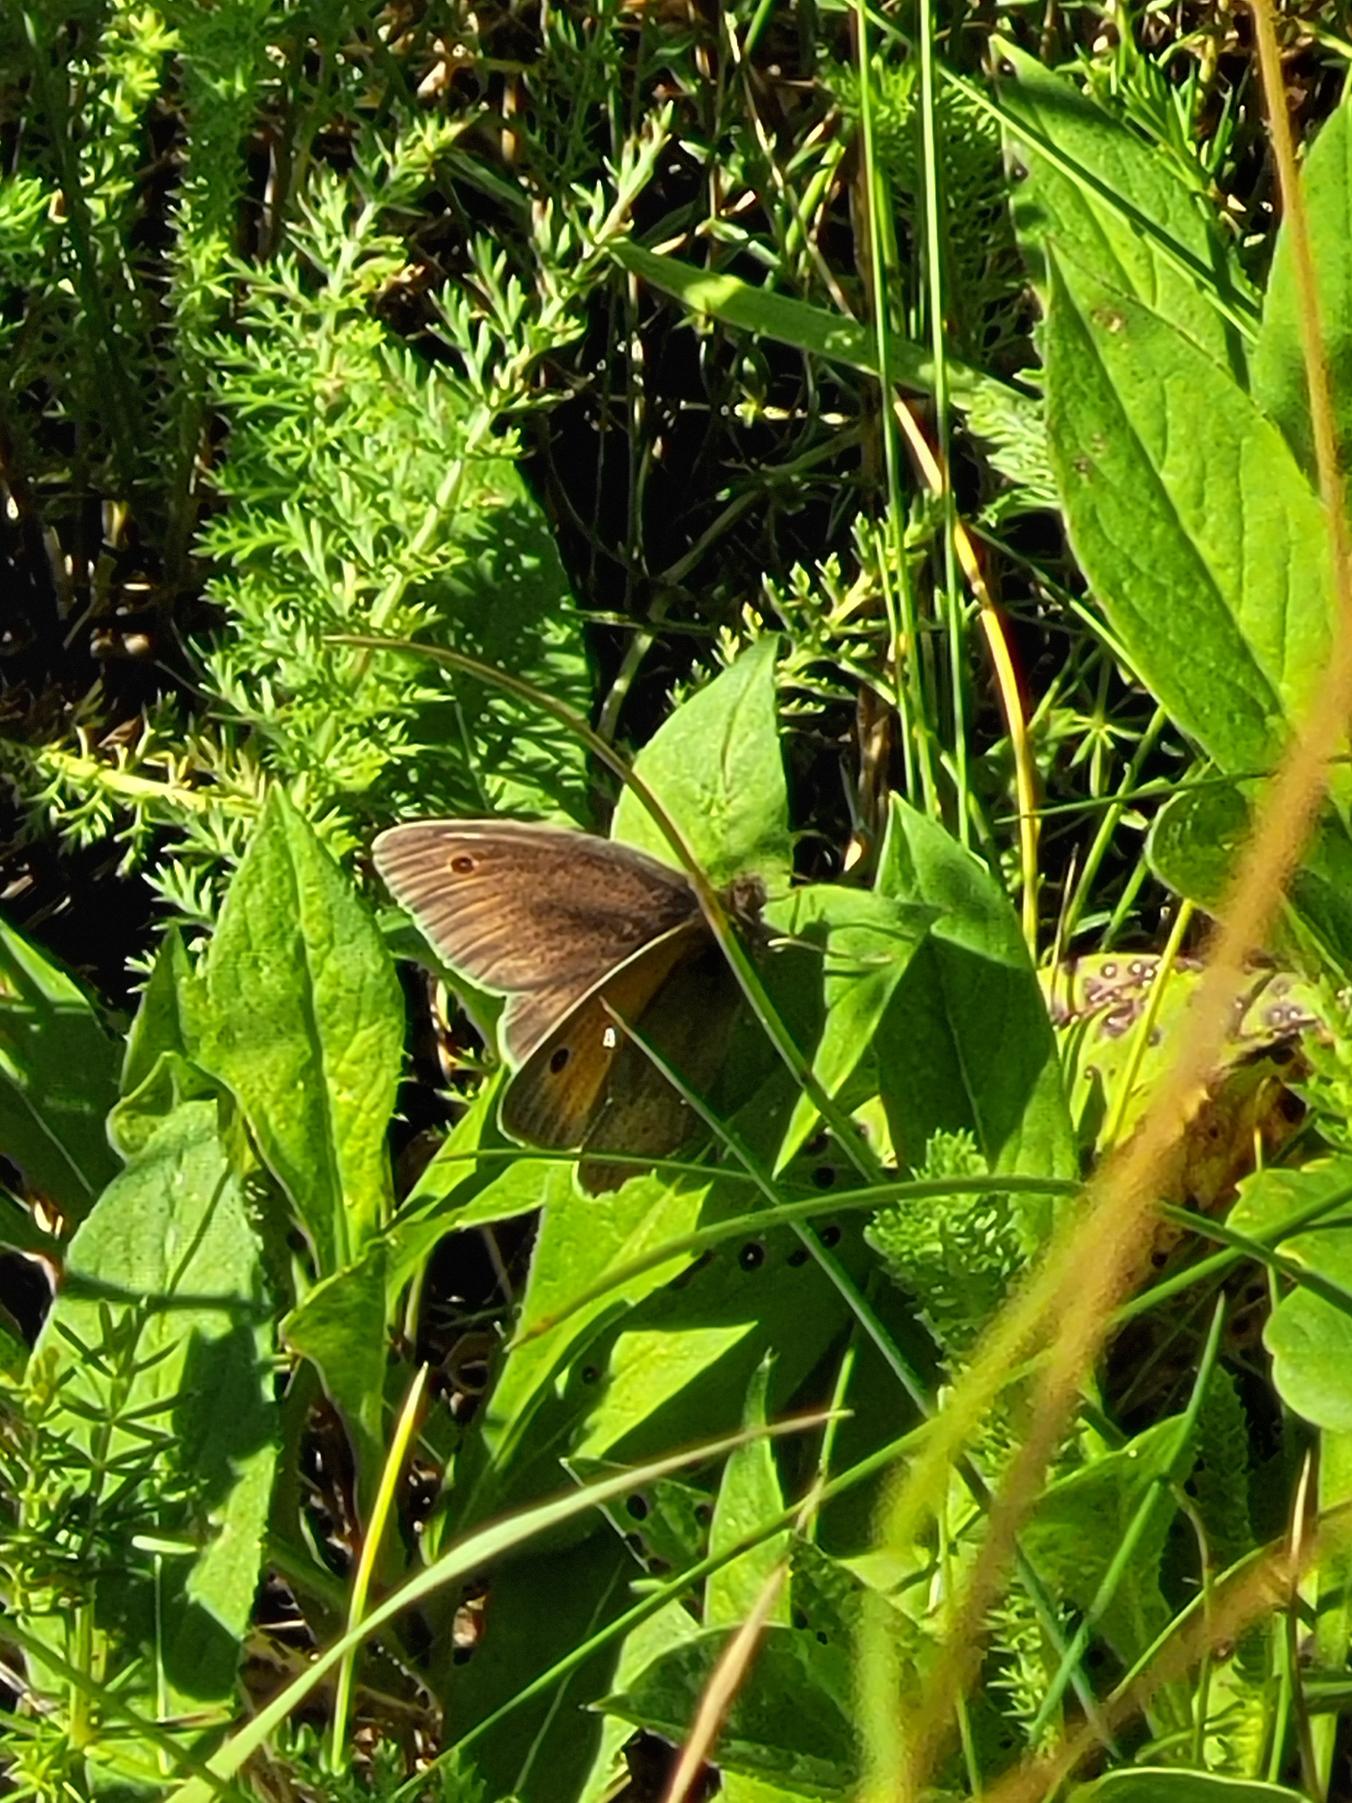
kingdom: Animalia
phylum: Arthropoda
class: Insecta
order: Lepidoptera
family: Nymphalidae
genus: Maniola
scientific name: Maniola jurtina
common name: Græsrandøje
